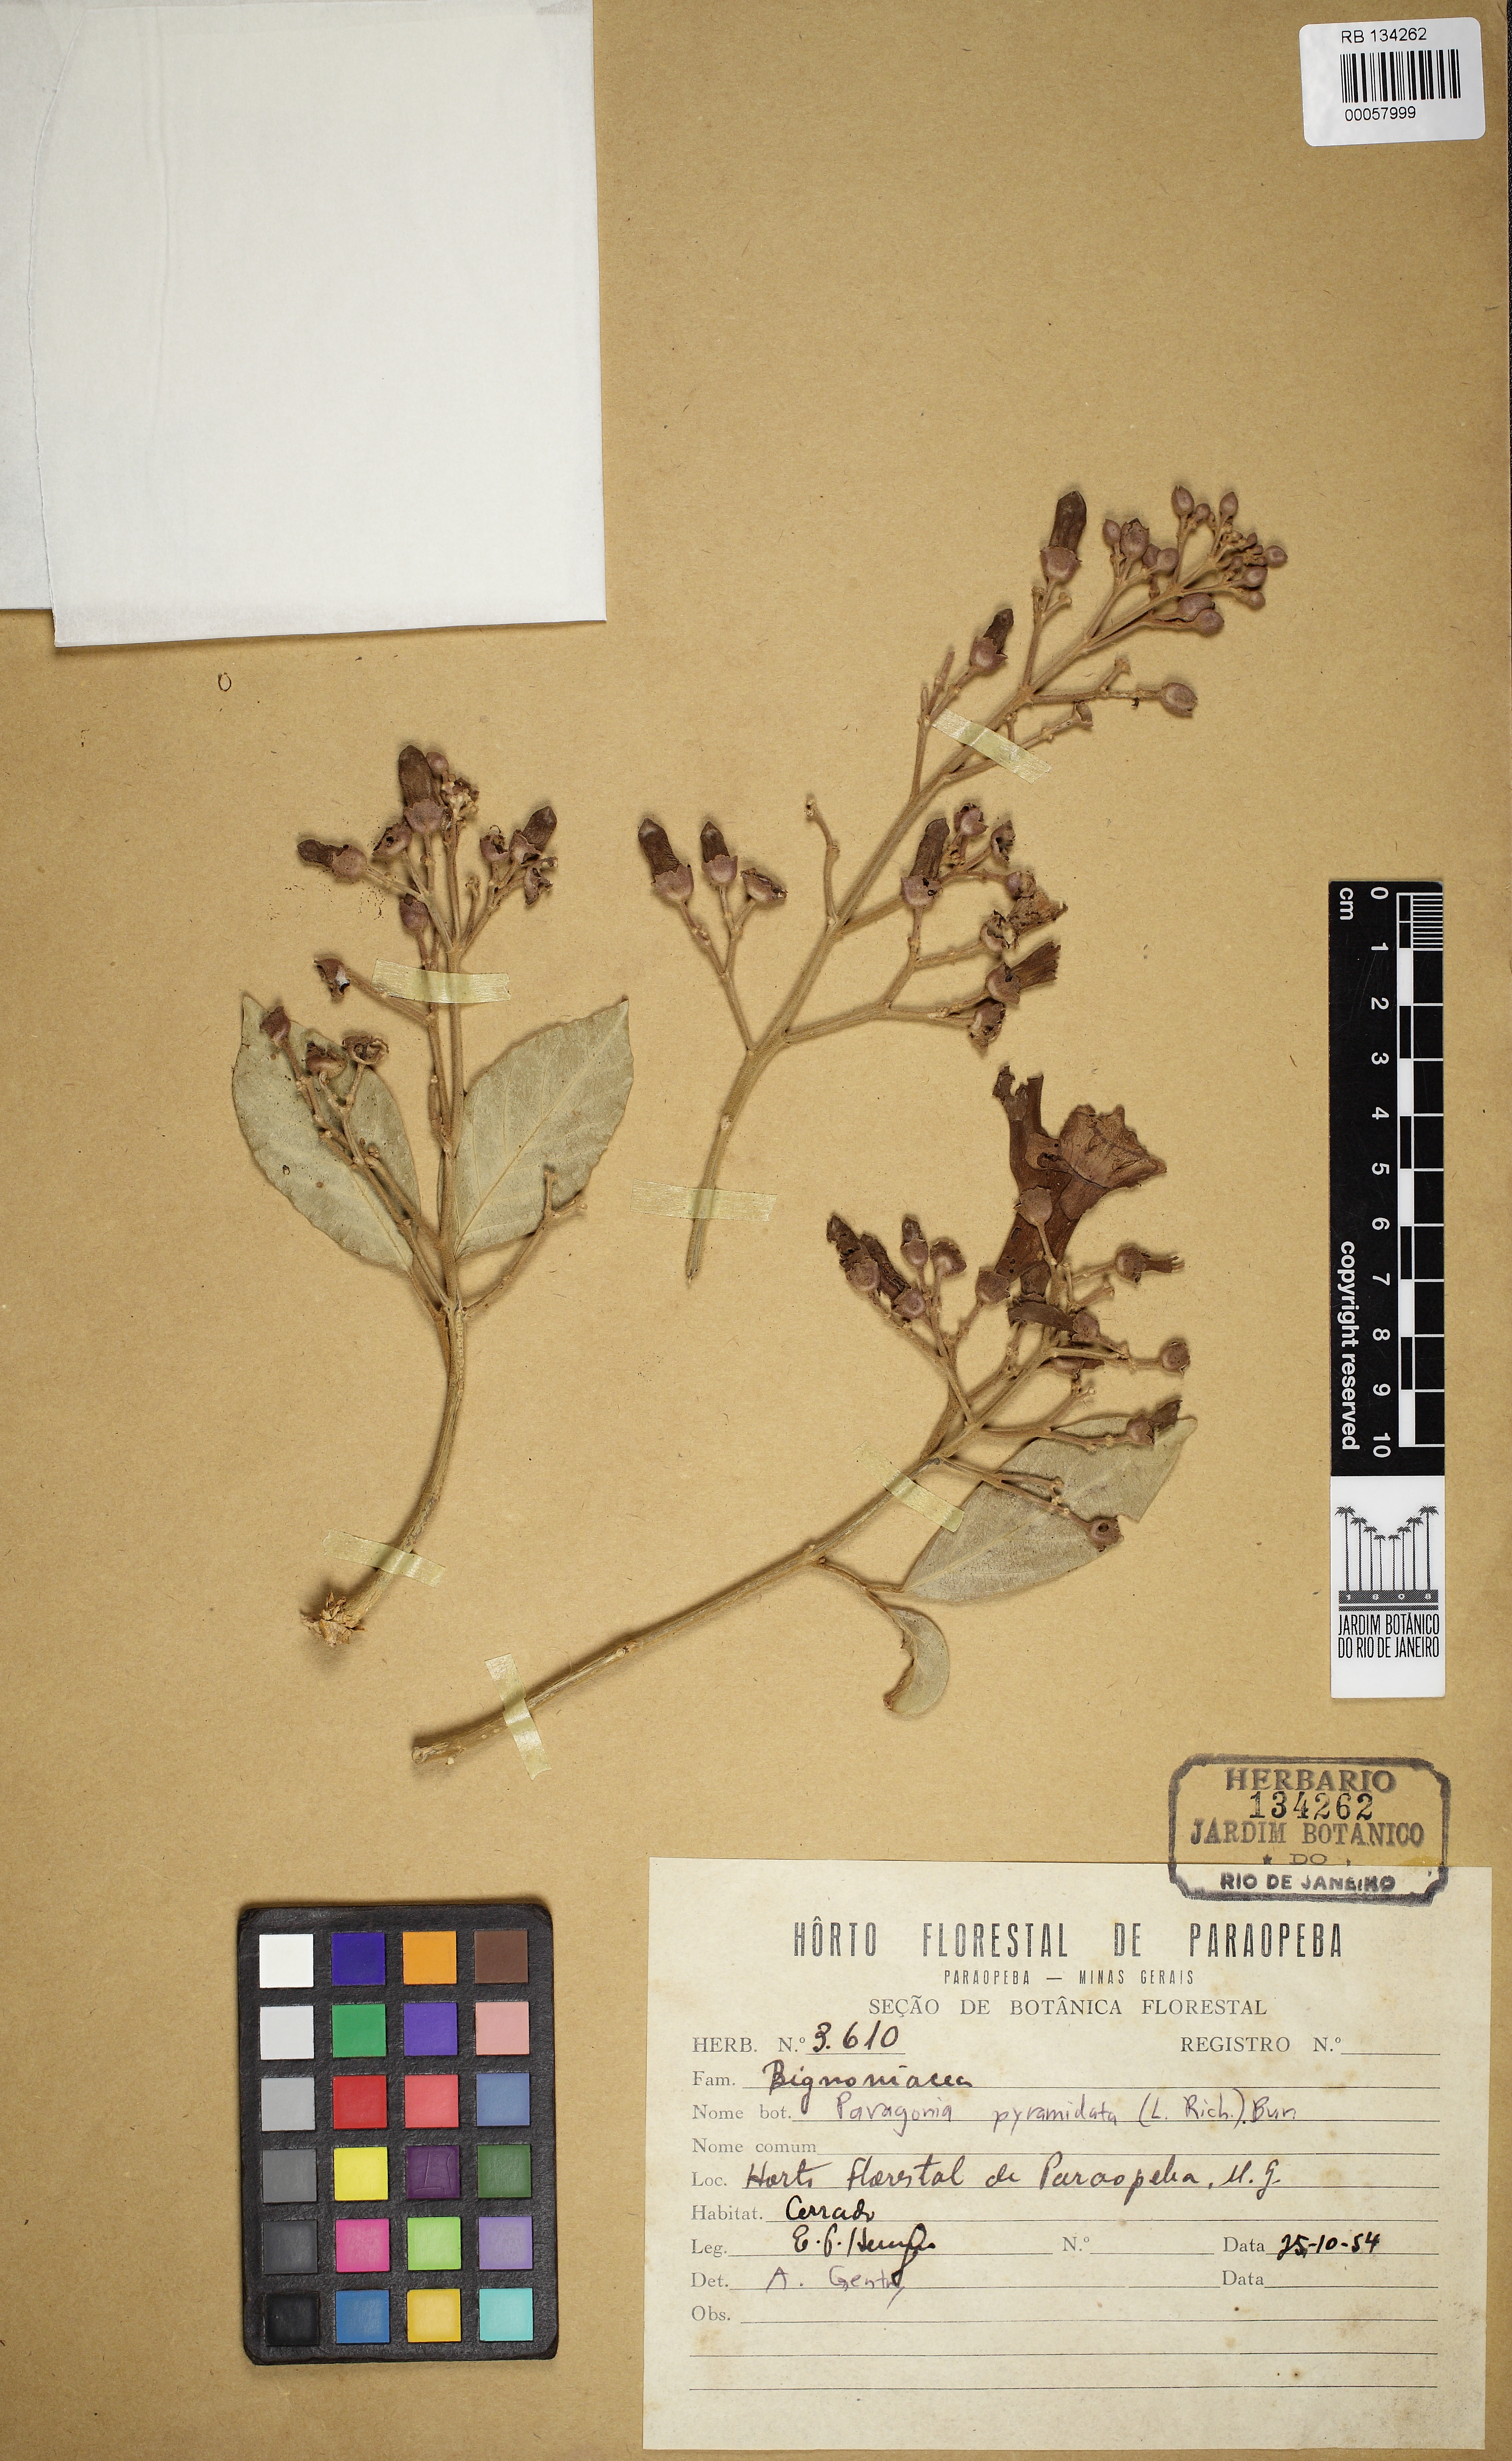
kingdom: Plantae
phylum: Tracheophyta
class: Magnoliopsida
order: Lamiales
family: Bignoniaceae
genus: Tanaecium
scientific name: Tanaecium pyramidatum
